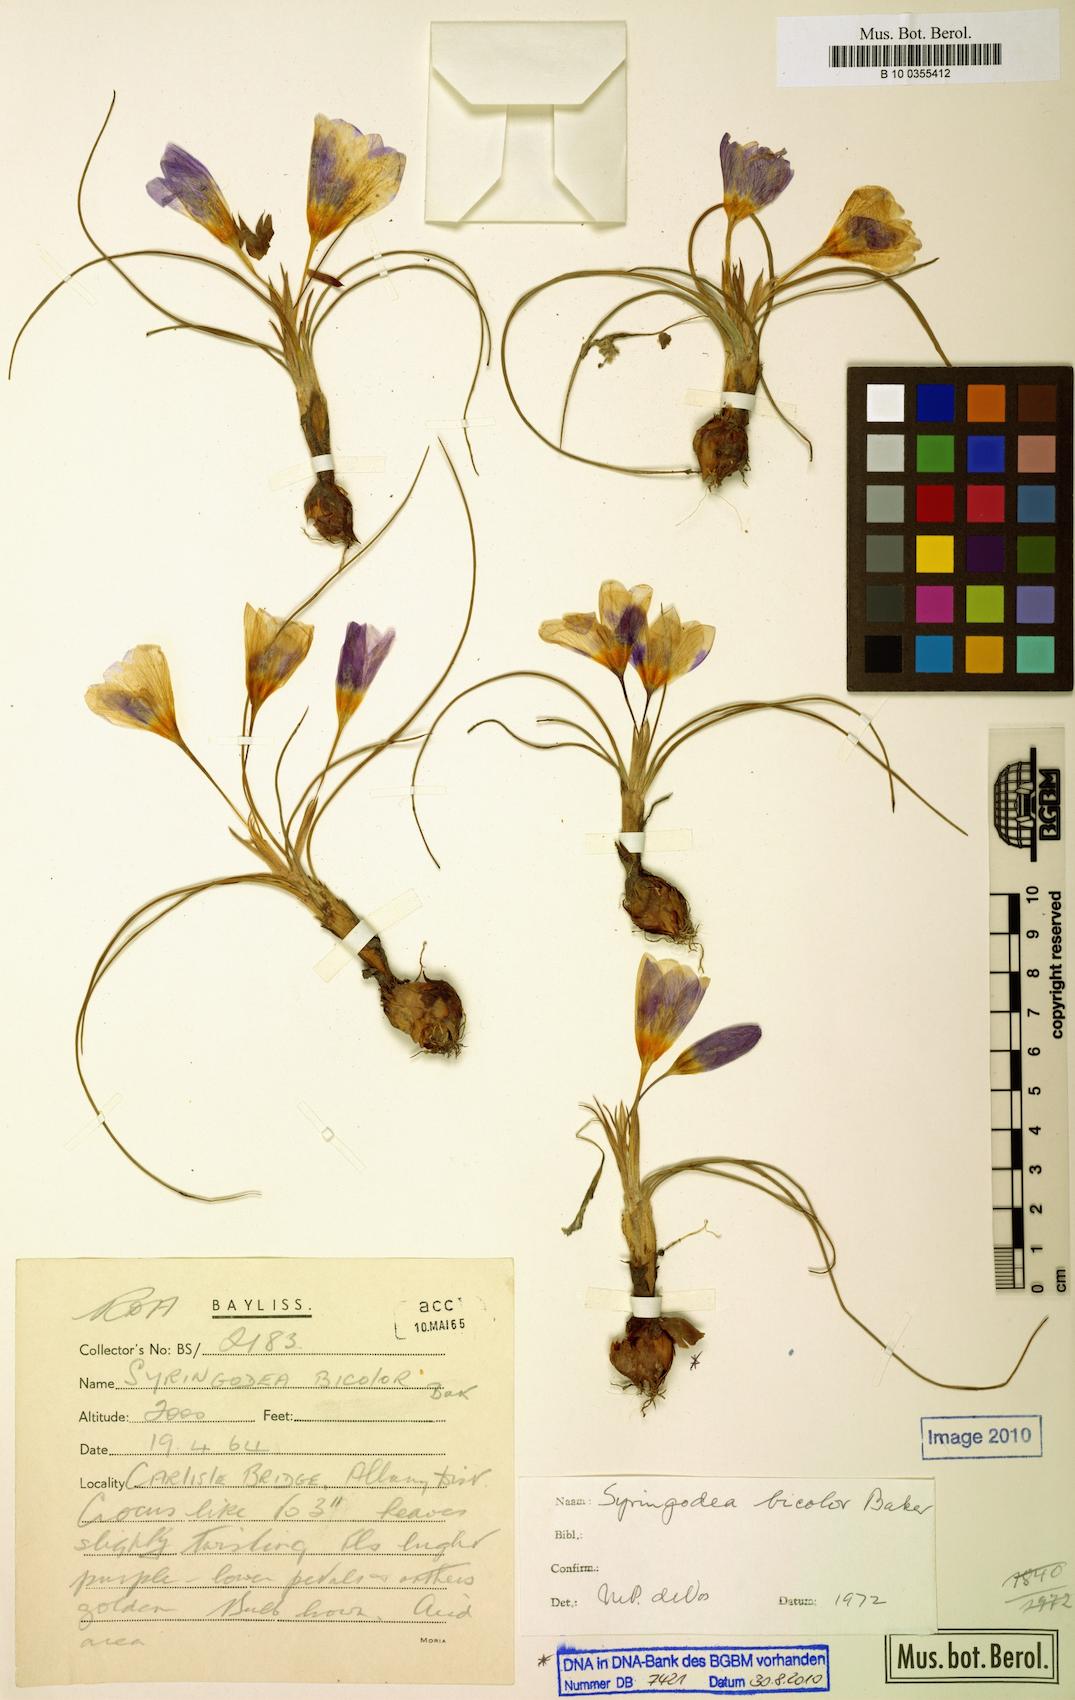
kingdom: Plantae
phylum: Tracheophyta
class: Liliopsida
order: Asparagales
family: Iridaceae
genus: Syringodea
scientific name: Syringodea longituba
